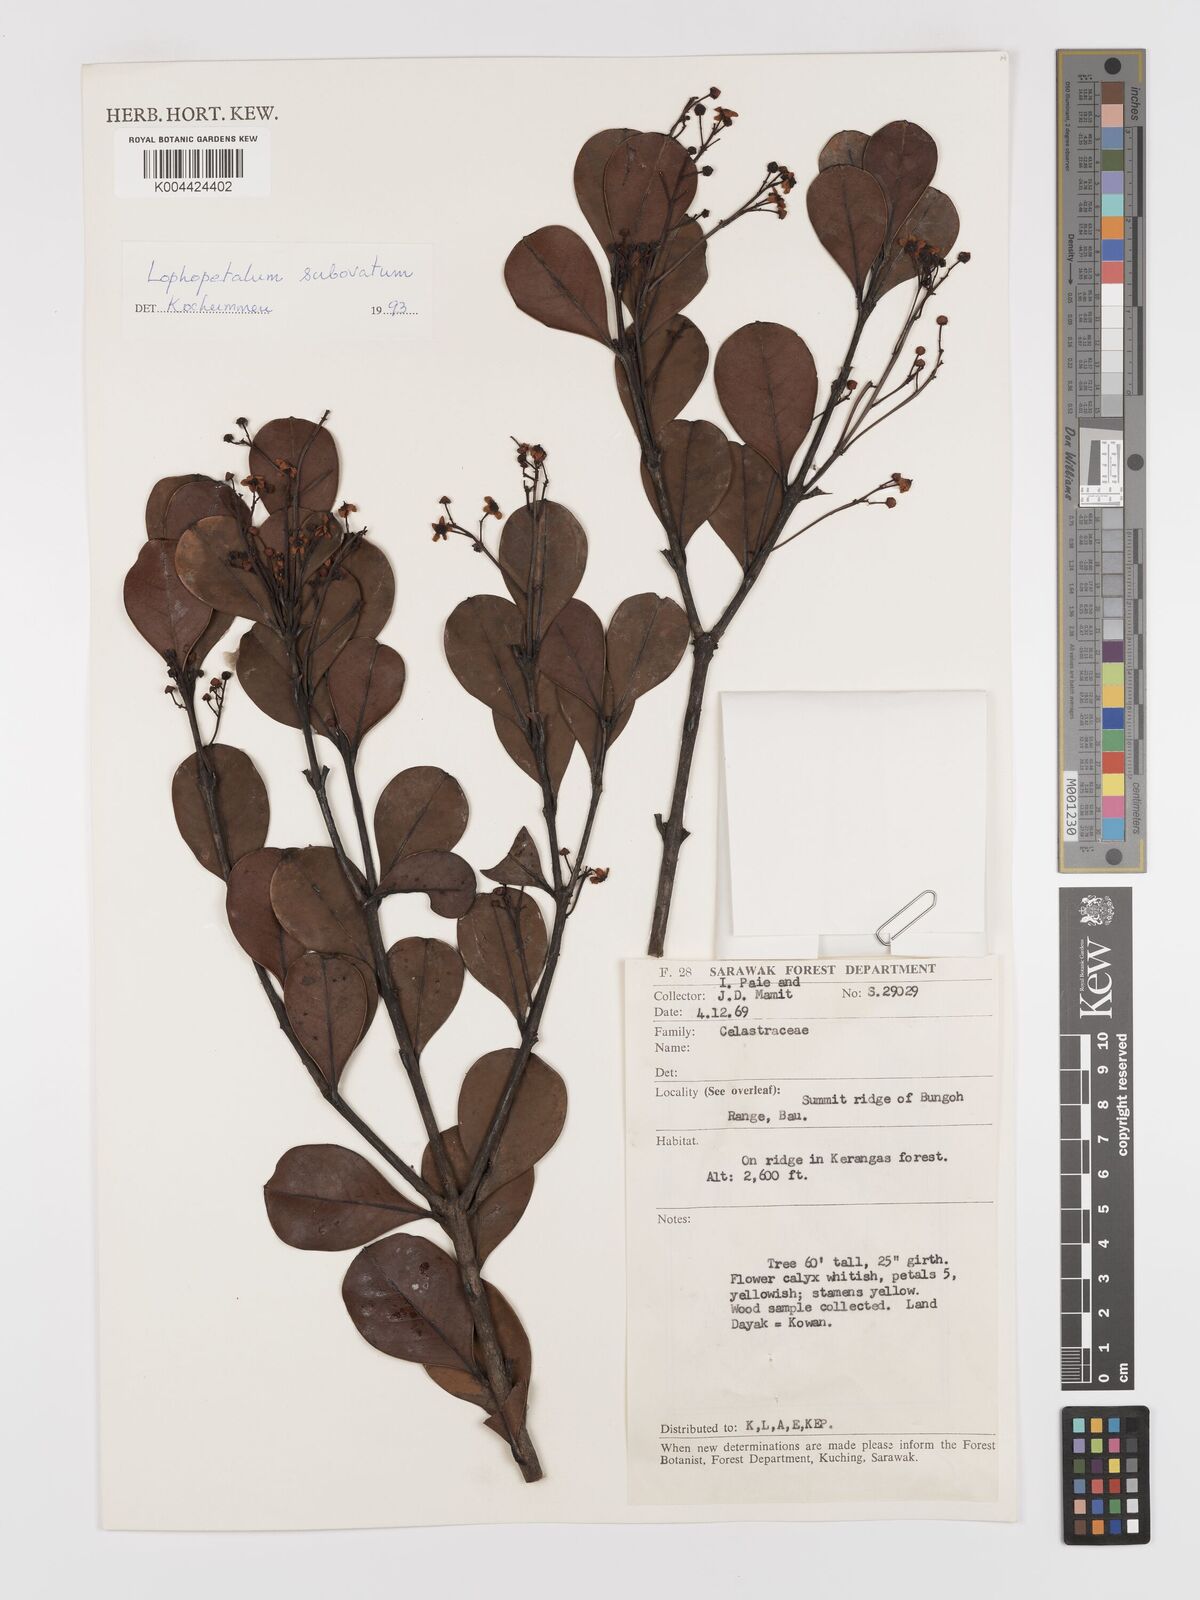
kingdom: Plantae
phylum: Tracheophyta
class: Magnoliopsida
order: Celastrales
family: Celastraceae
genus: Lophopetalum
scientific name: Lophopetalum
